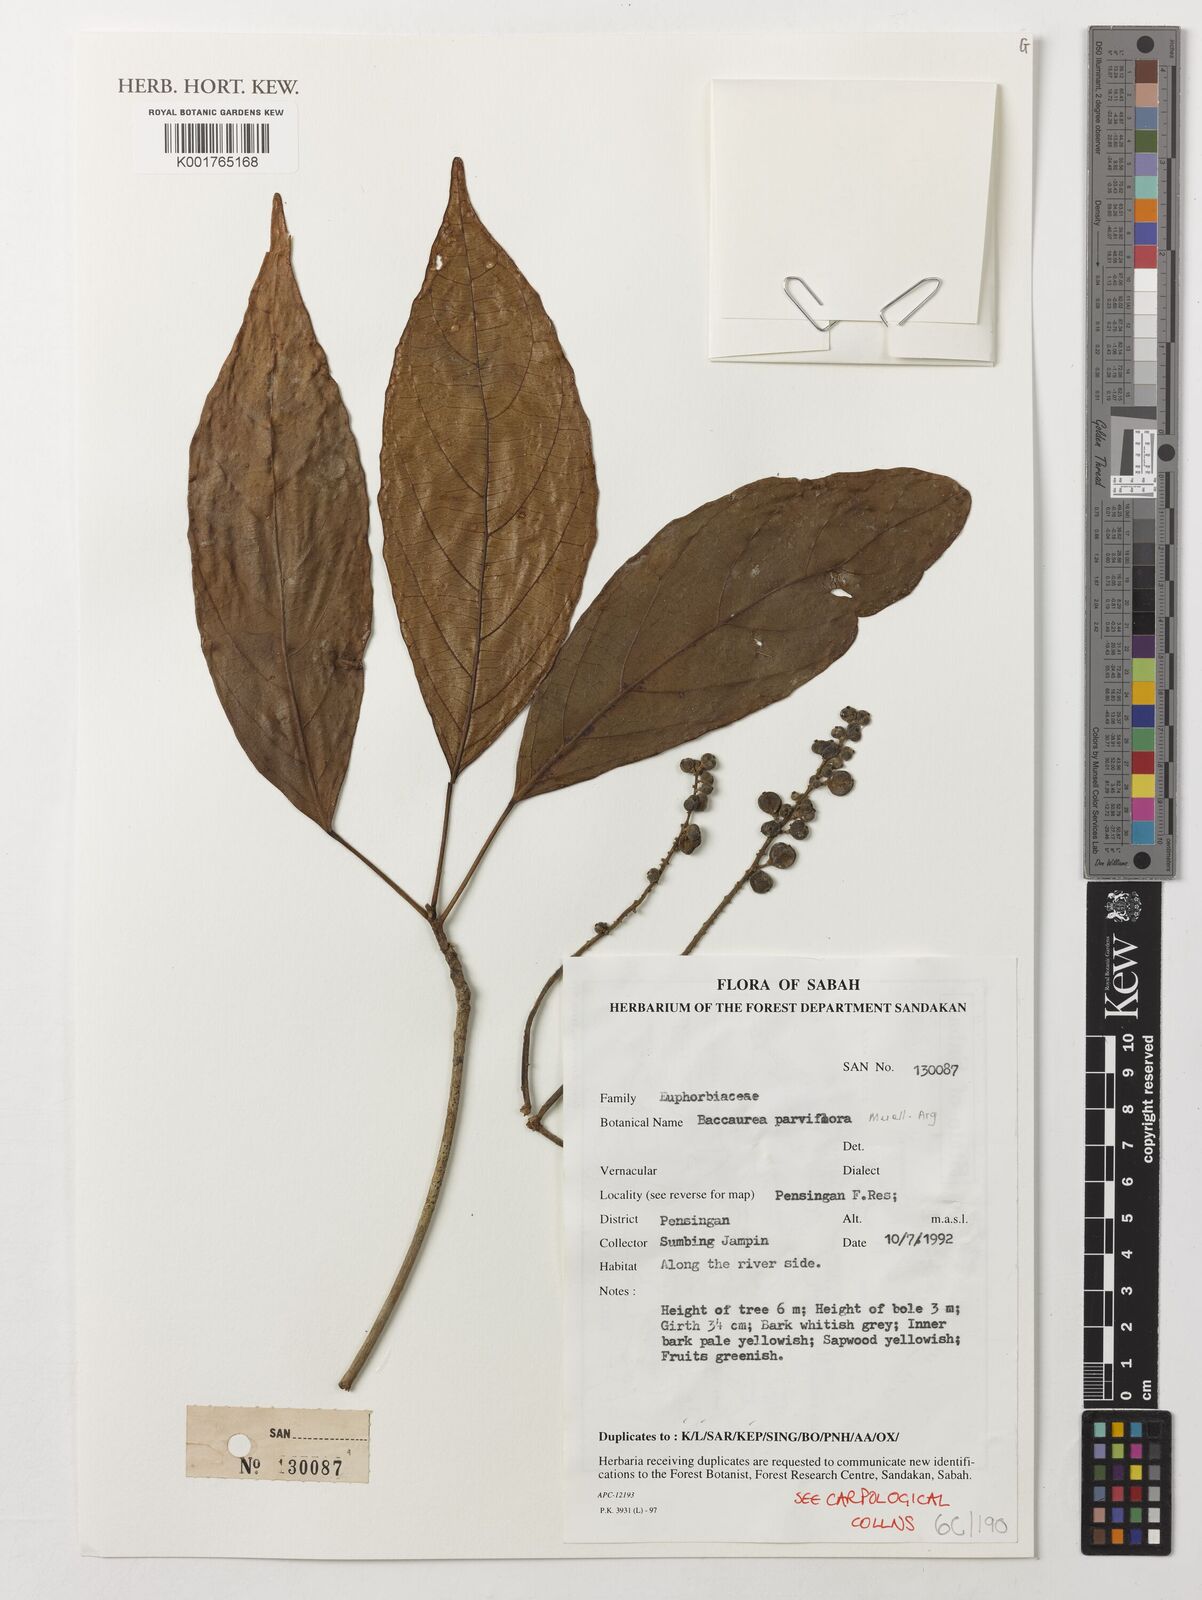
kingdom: Plantae
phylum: Tracheophyta
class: Magnoliopsida
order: Malpighiales
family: Phyllanthaceae
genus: Baccaurea
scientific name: Baccaurea parviflora
